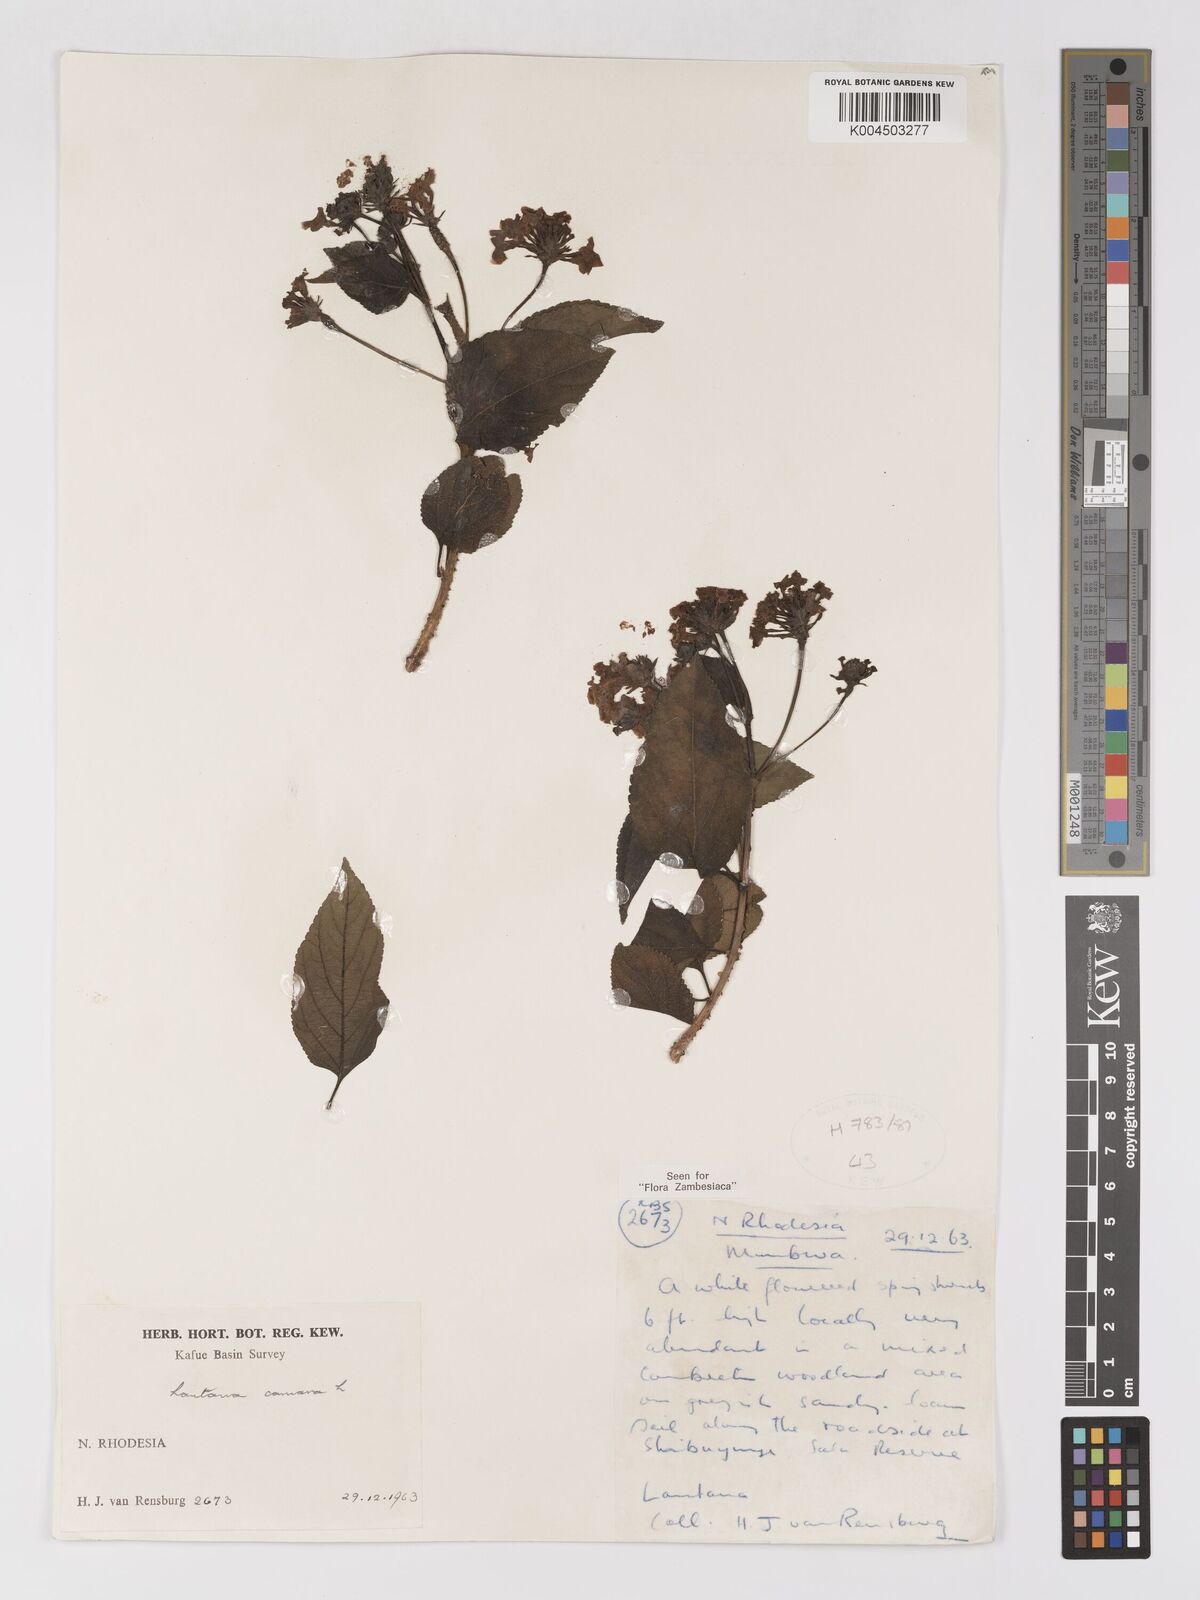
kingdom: Plantae
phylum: Tracheophyta
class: Magnoliopsida
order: Lamiales
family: Verbenaceae
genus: Lantana
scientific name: Lantana camara
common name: Lantana
